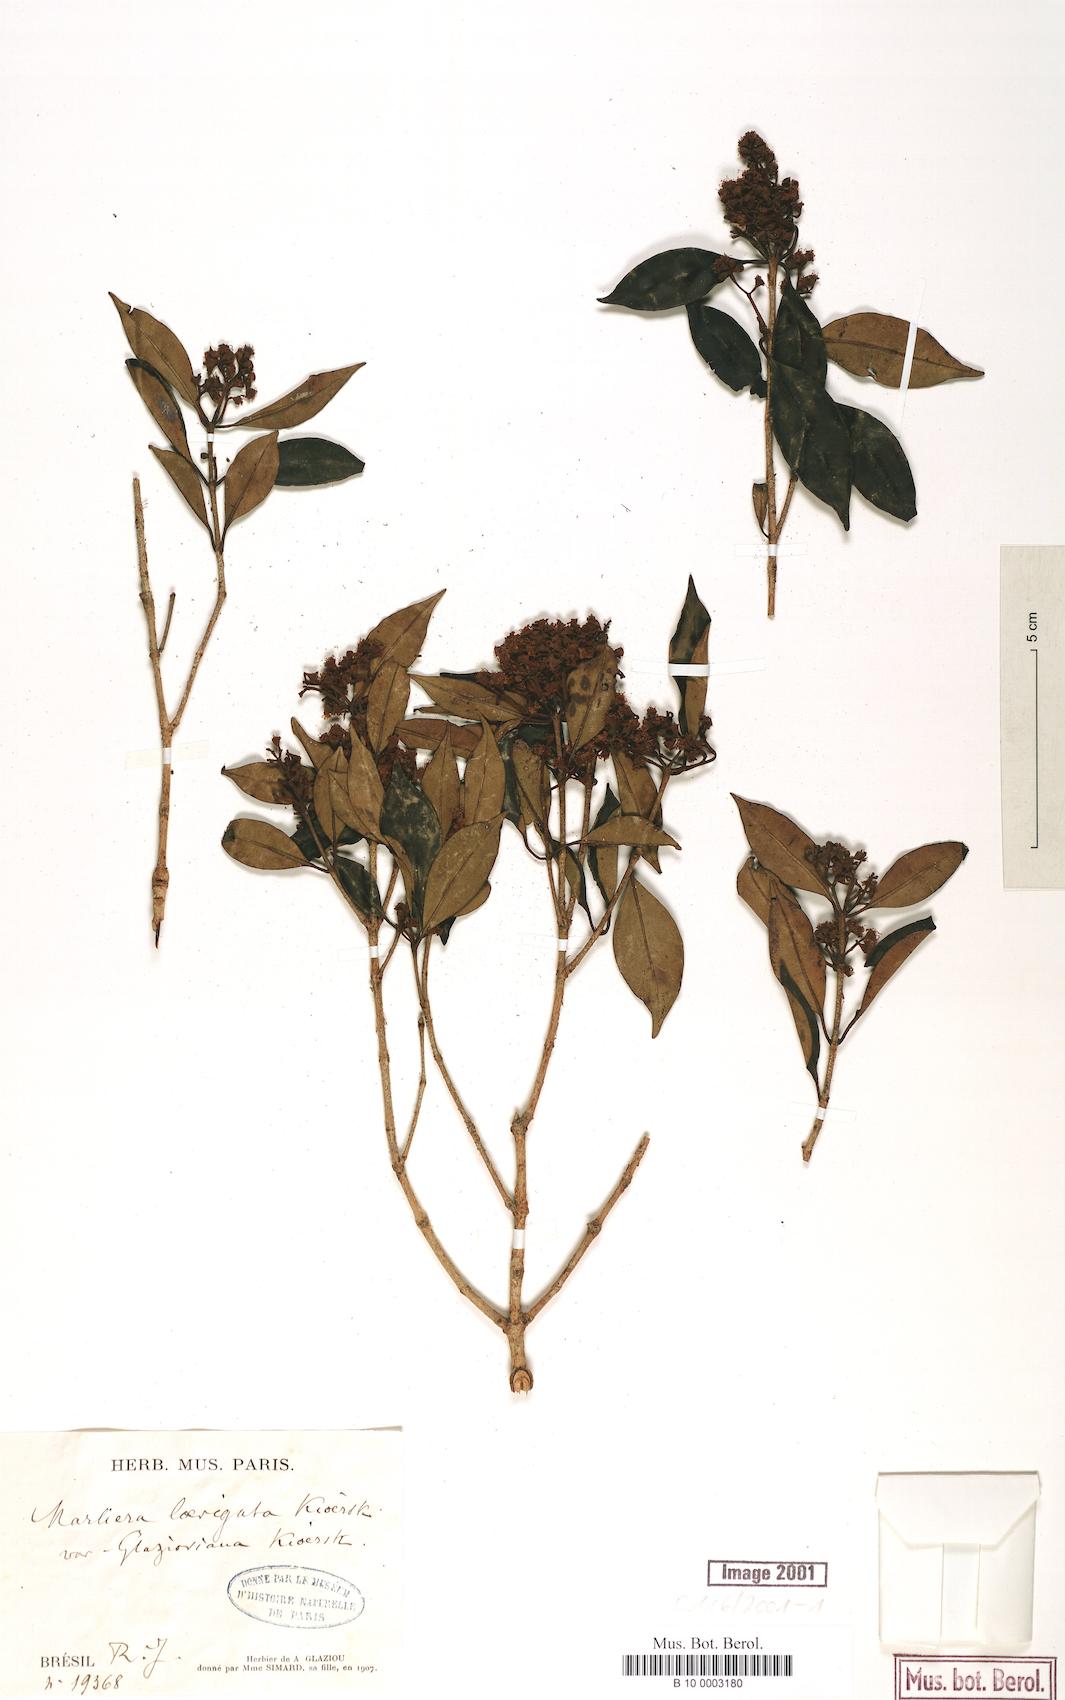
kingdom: Plantae
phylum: Tracheophyta
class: Magnoliopsida
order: Myrtales
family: Myrtaceae
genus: Myrcia
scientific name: Myrcia multipunctata
